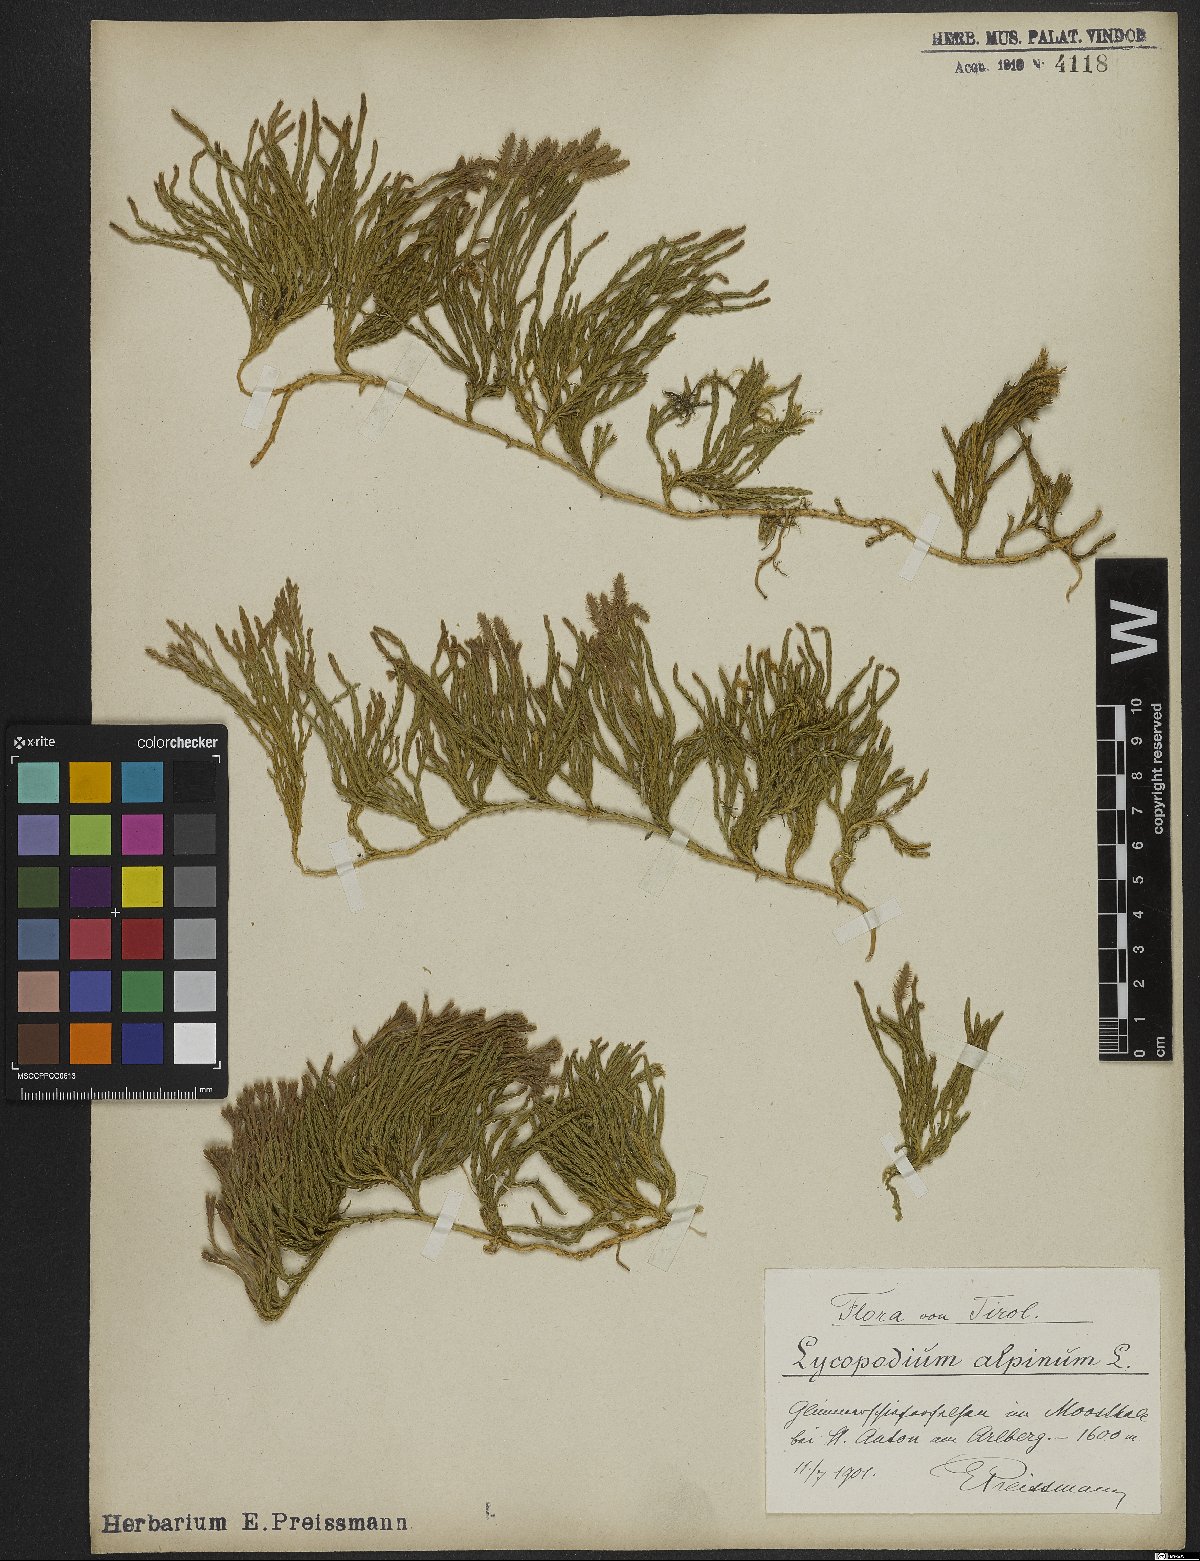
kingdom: Plantae
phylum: Tracheophyta
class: Lycopodiopsida
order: Lycopodiales
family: Lycopodiaceae
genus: Diphasiastrum
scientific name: Diphasiastrum alpinum
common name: Alpine clubmoss
